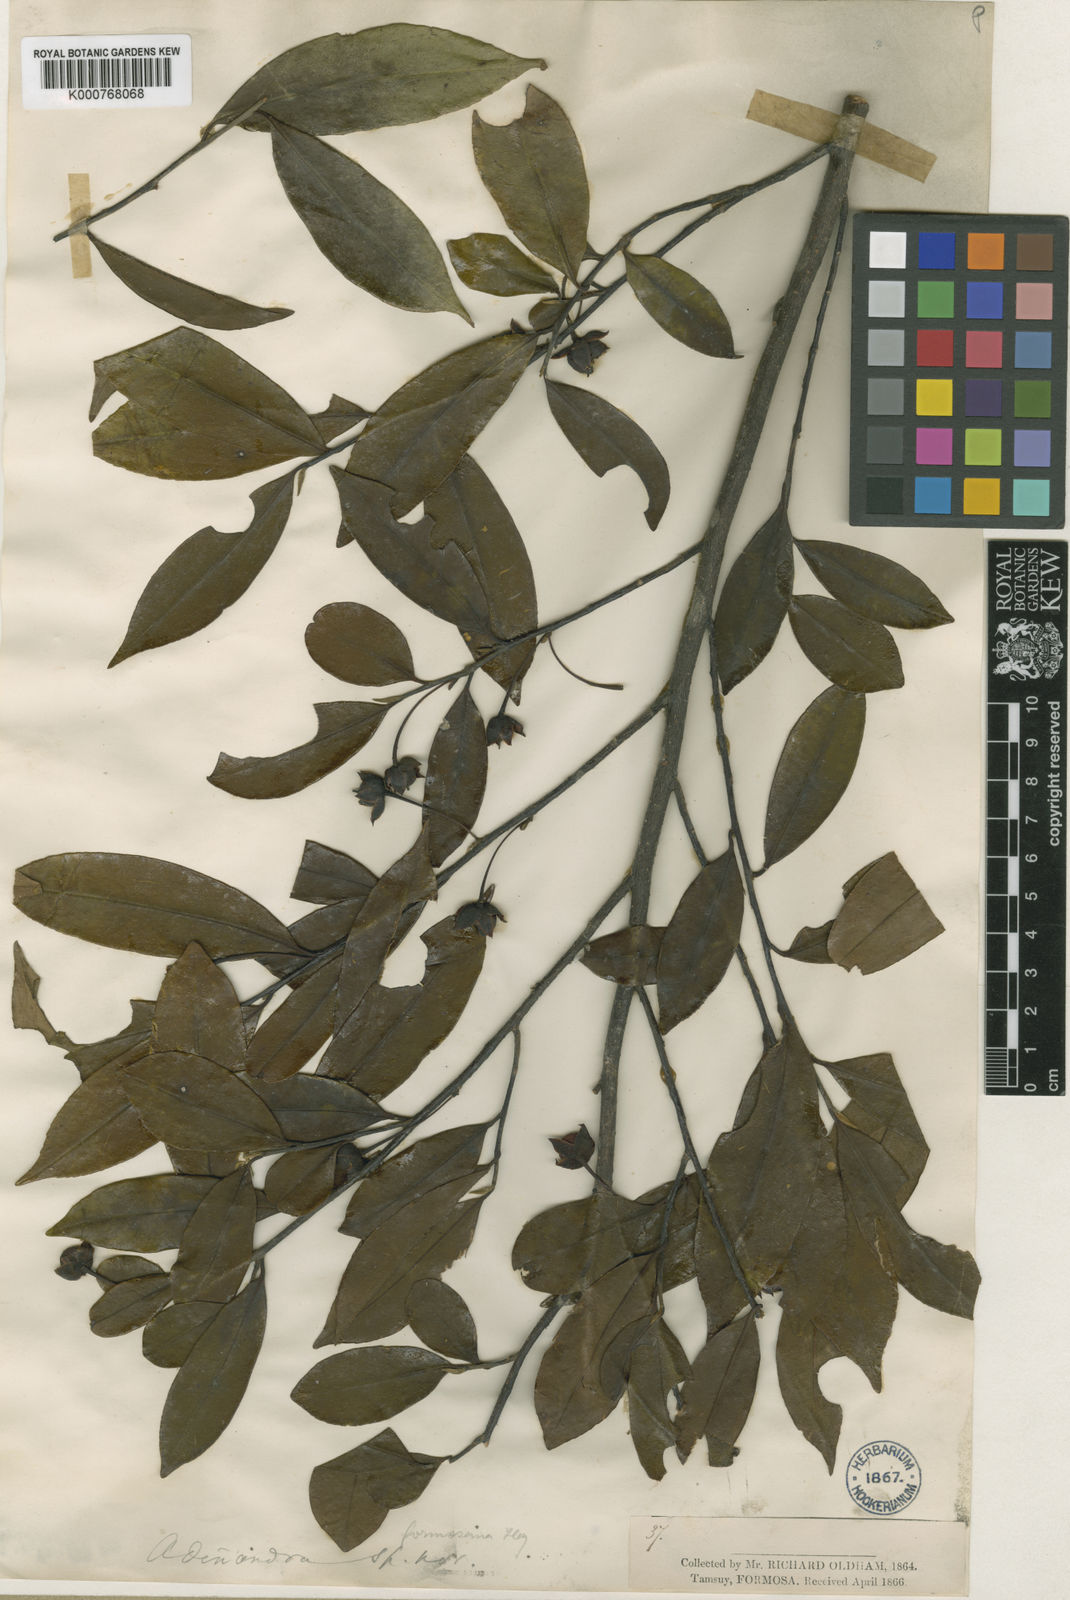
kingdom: Plantae
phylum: Tracheophyta
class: Magnoliopsida
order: Ericales
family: Pentaphylacaceae
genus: Adinandra
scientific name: Adinandra
